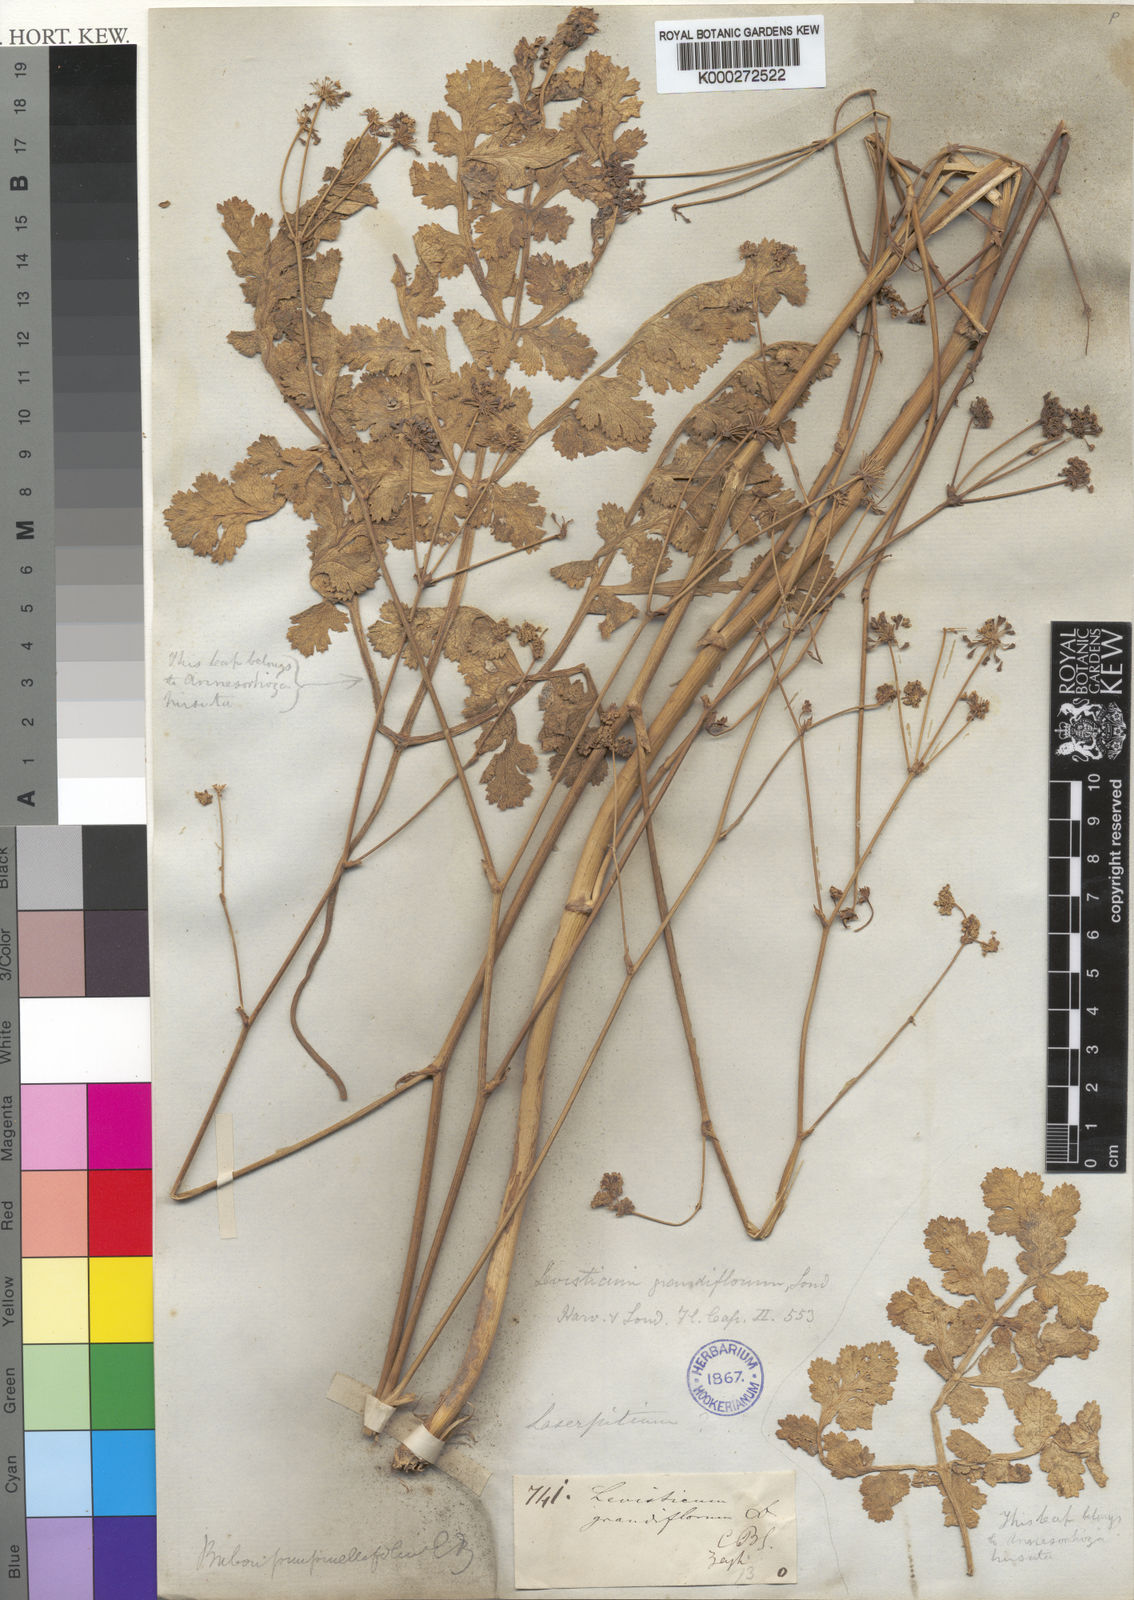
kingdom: Plantae
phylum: Tracheophyta
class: Magnoliopsida
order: Apiales
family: Apiaceae
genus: Annesorhiza
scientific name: Annesorhiza
